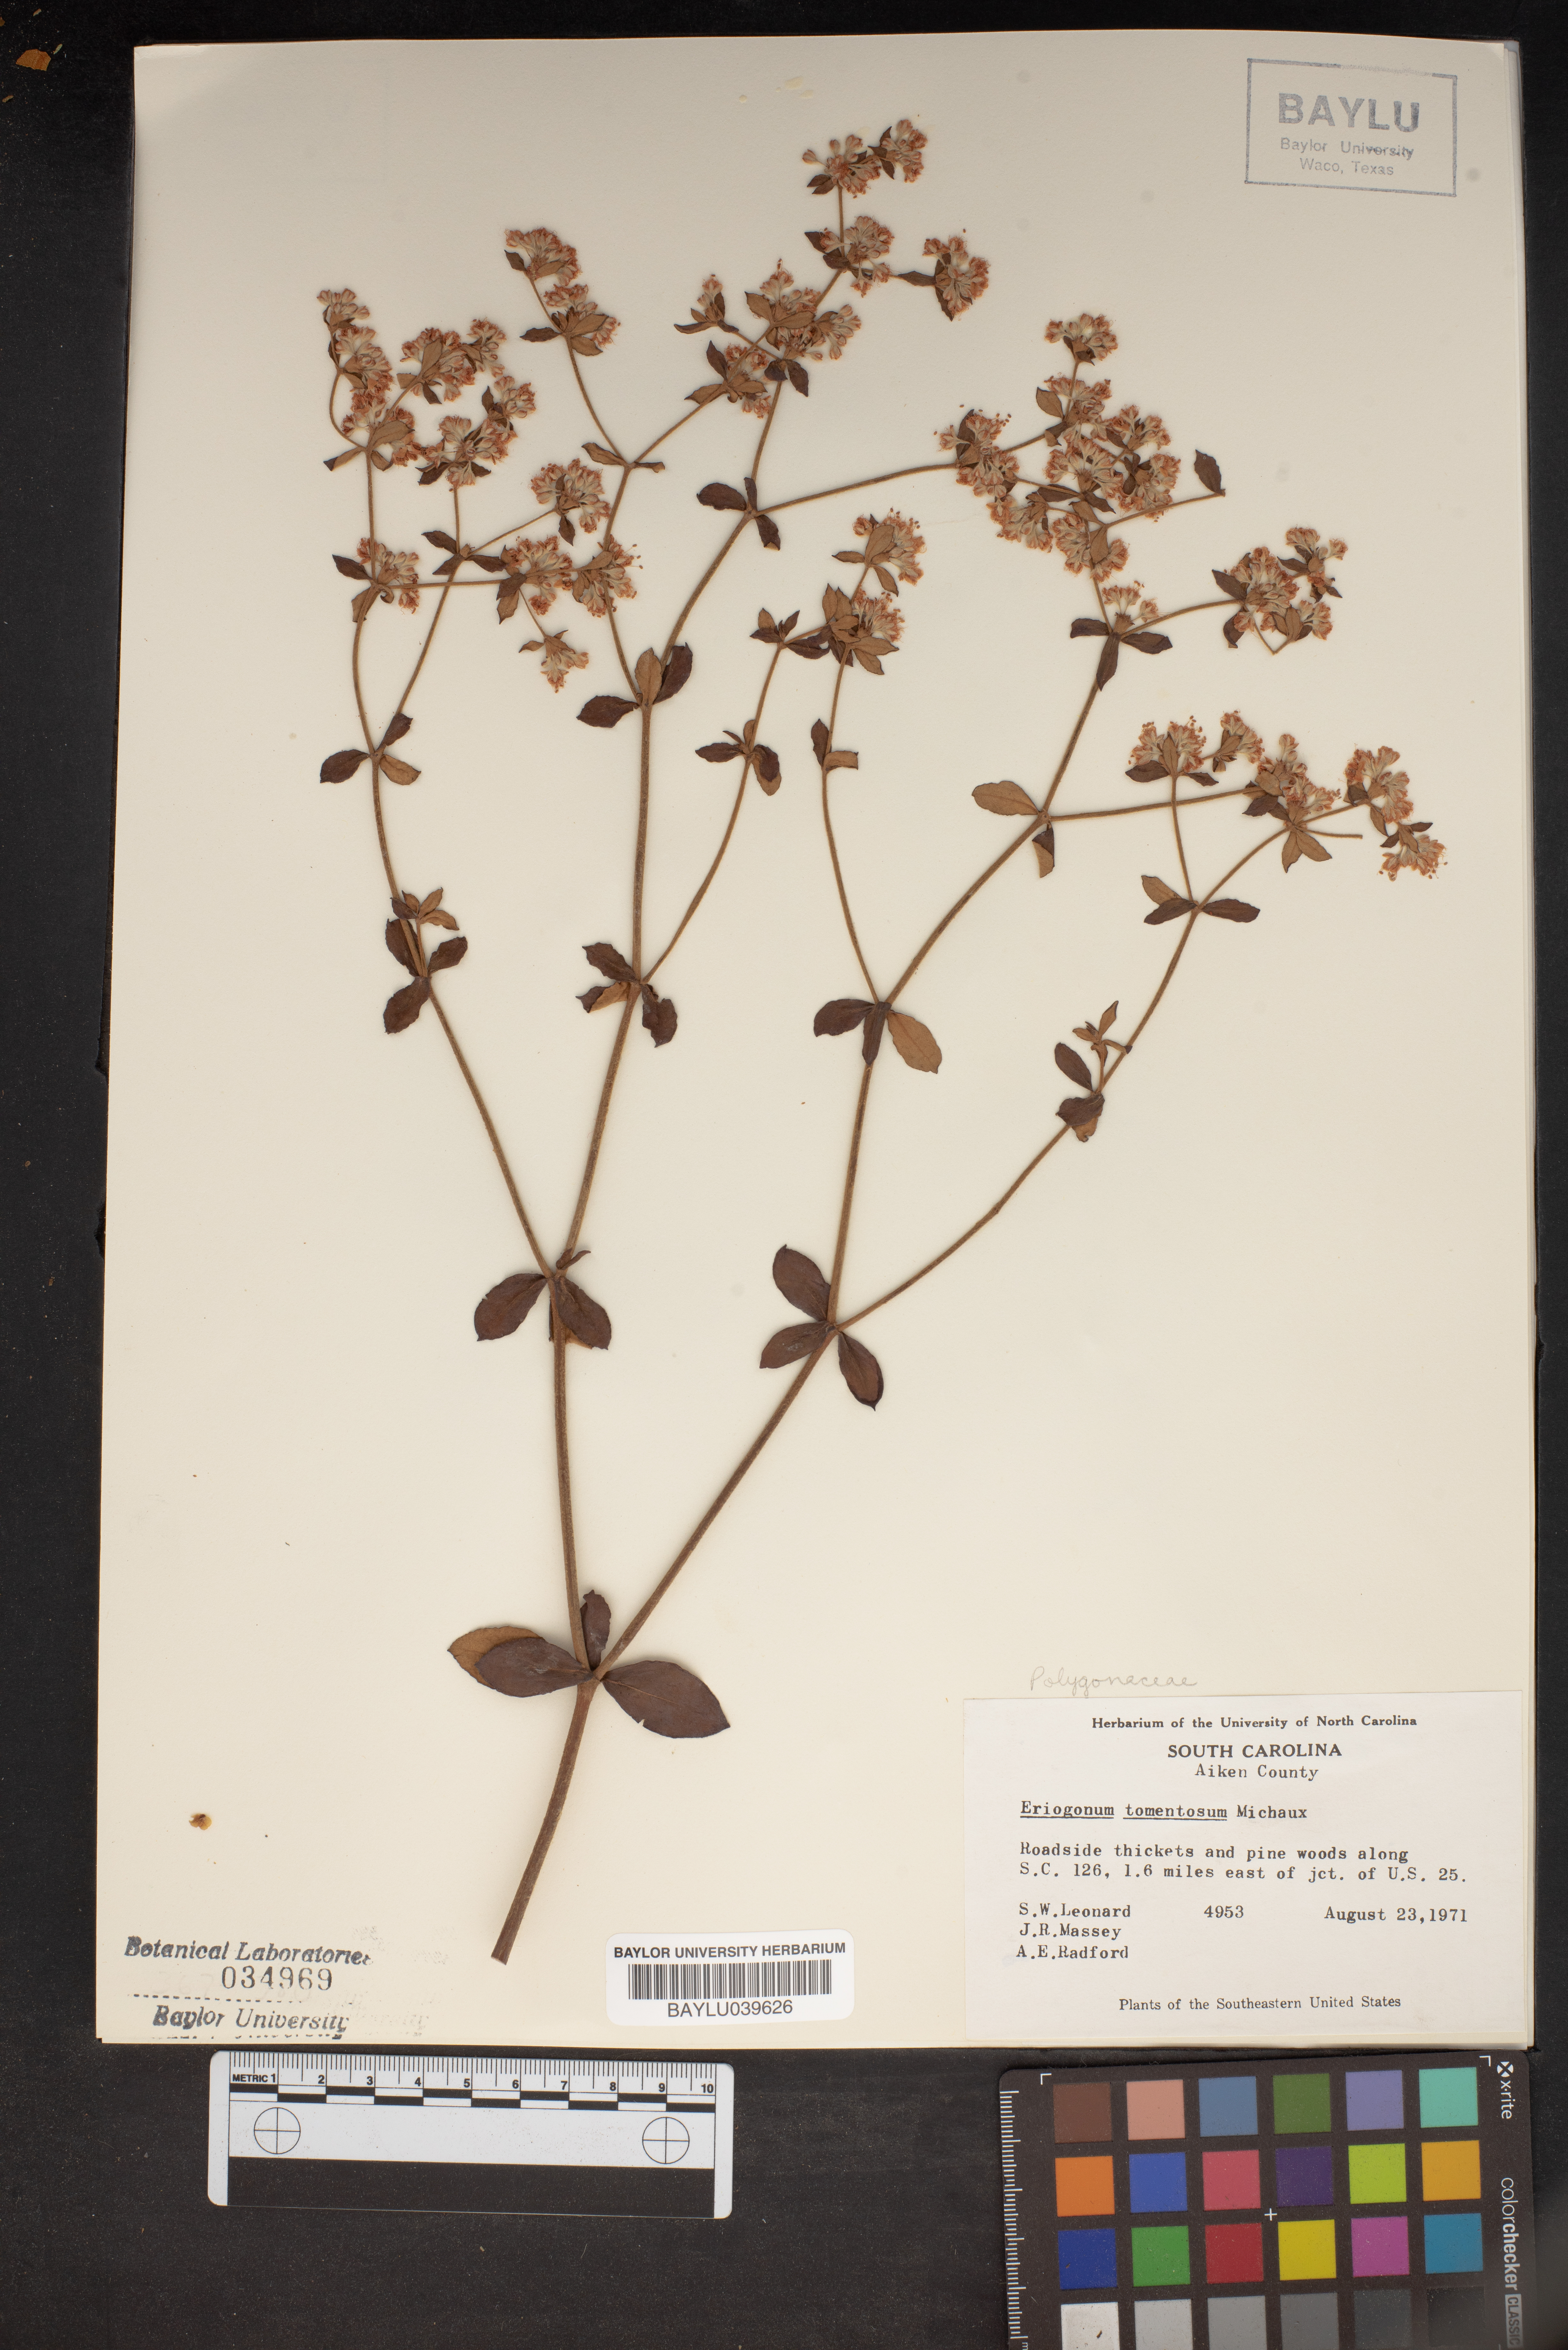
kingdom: Plantae
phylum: Tracheophyta
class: Magnoliopsida
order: Caryophyllales
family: Polygonaceae
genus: Eriogonum
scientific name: Eriogonum tomentosum
